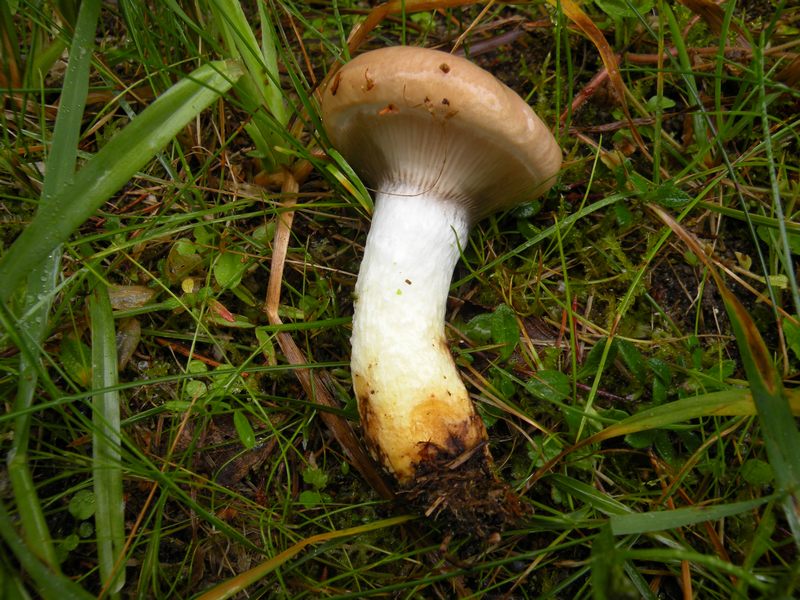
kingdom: Fungi
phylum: Basidiomycota
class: Agaricomycetes
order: Boletales
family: Gomphidiaceae
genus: Gomphidius
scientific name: Gomphidius glutinosus
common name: grå slimslør
